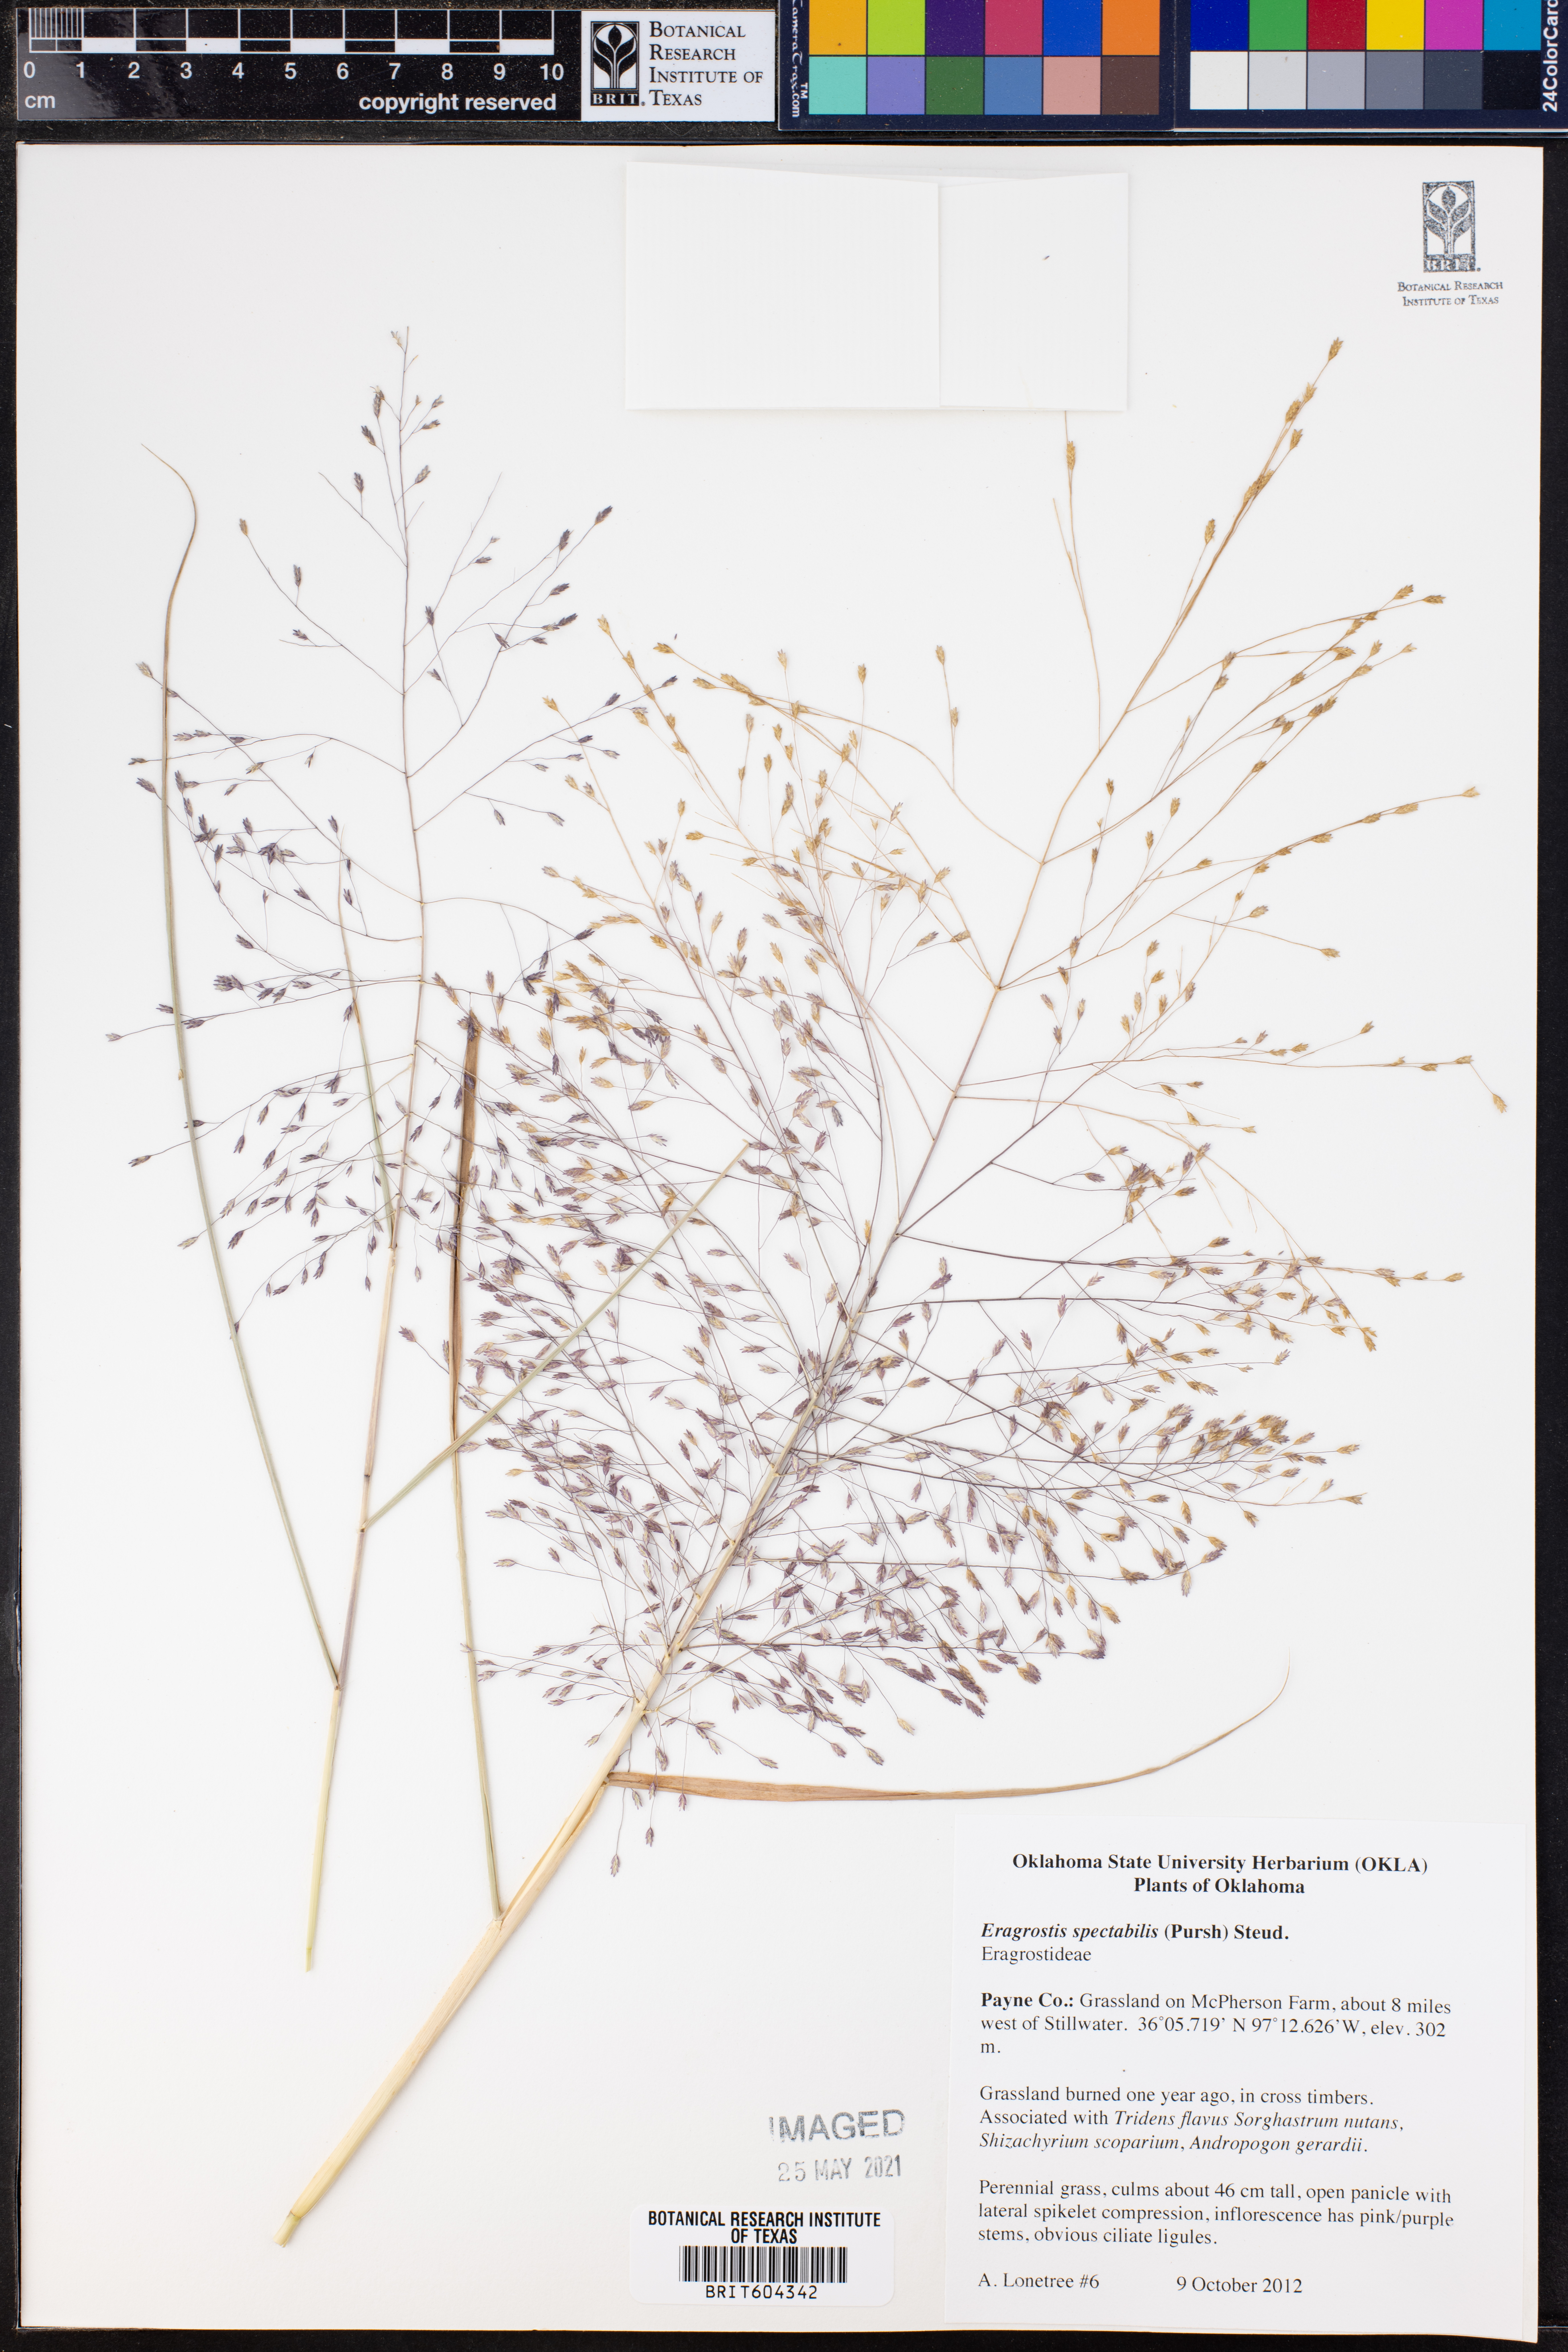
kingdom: Plantae
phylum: Tracheophyta
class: Liliopsida
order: Poales
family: Poaceae
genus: Eragrostis
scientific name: Eragrostis spectabilis
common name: Petticoat-climber
